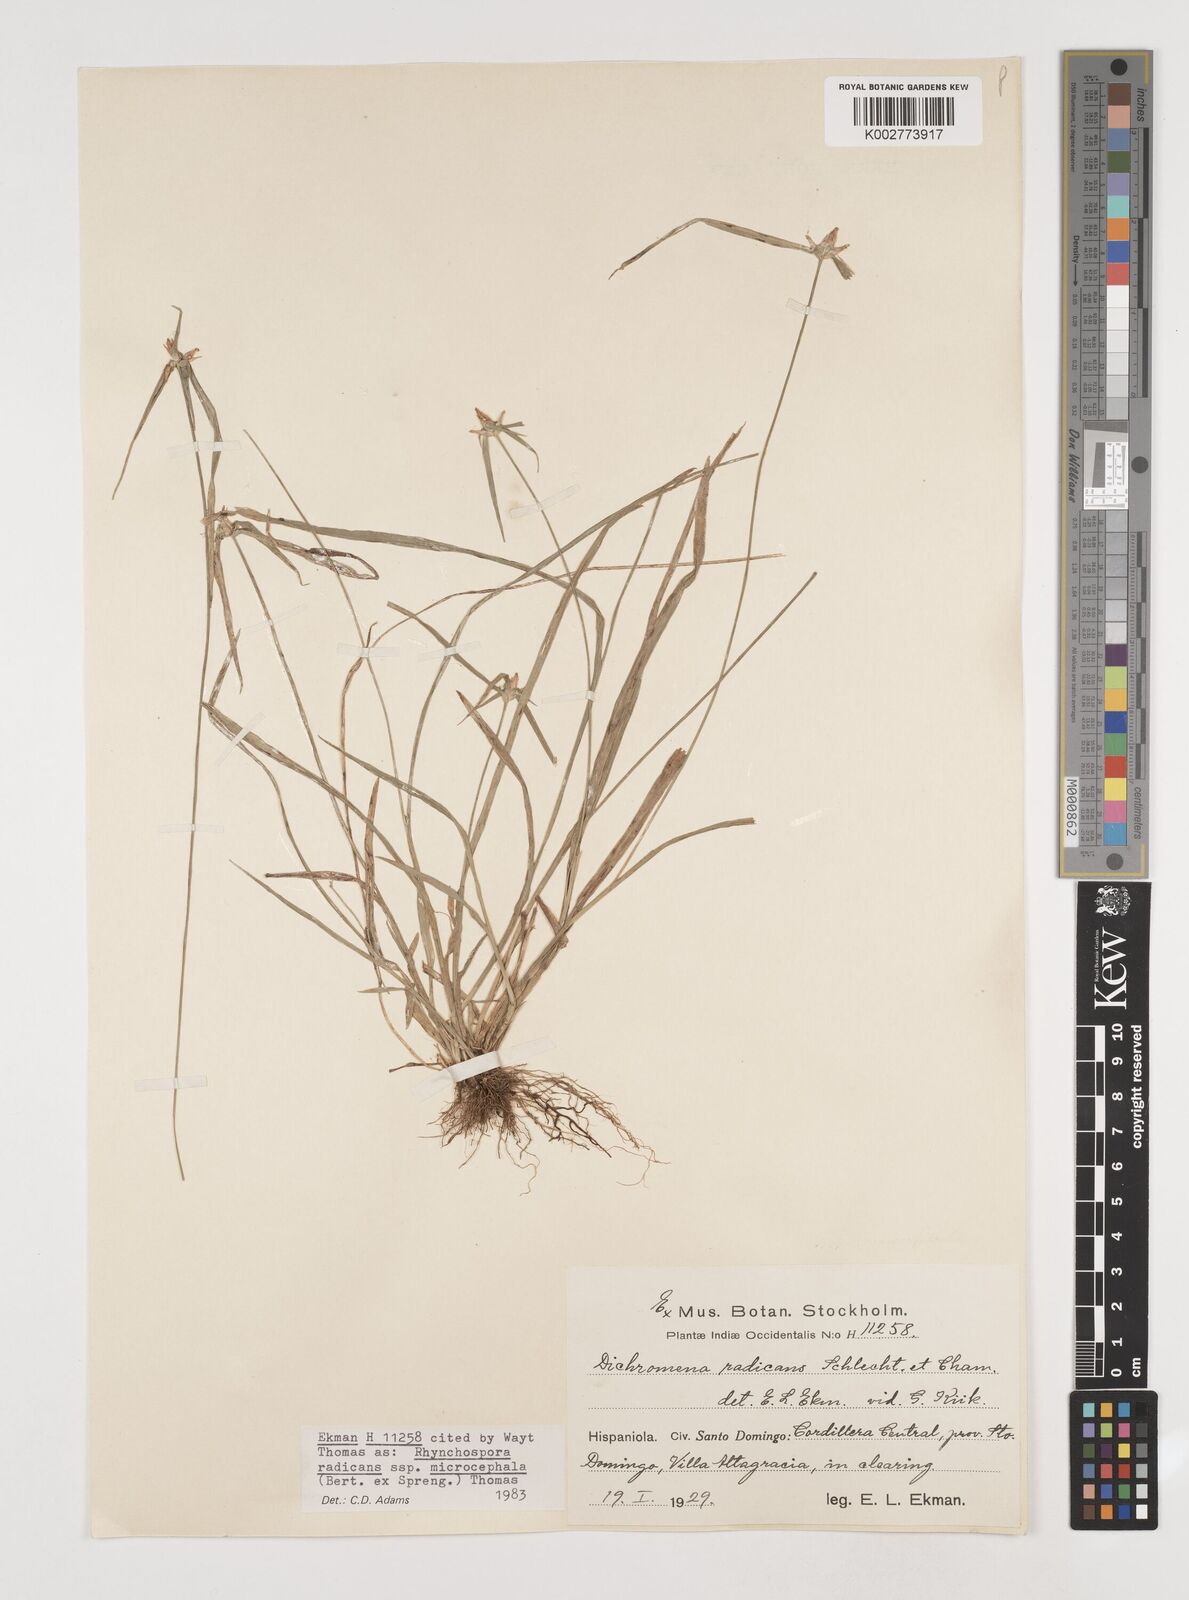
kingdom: Plantae
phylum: Tracheophyta
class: Liliopsida
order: Poales
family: Cyperaceae
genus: Rhynchospora
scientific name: Rhynchospora radicans
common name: Tropical whitetop
